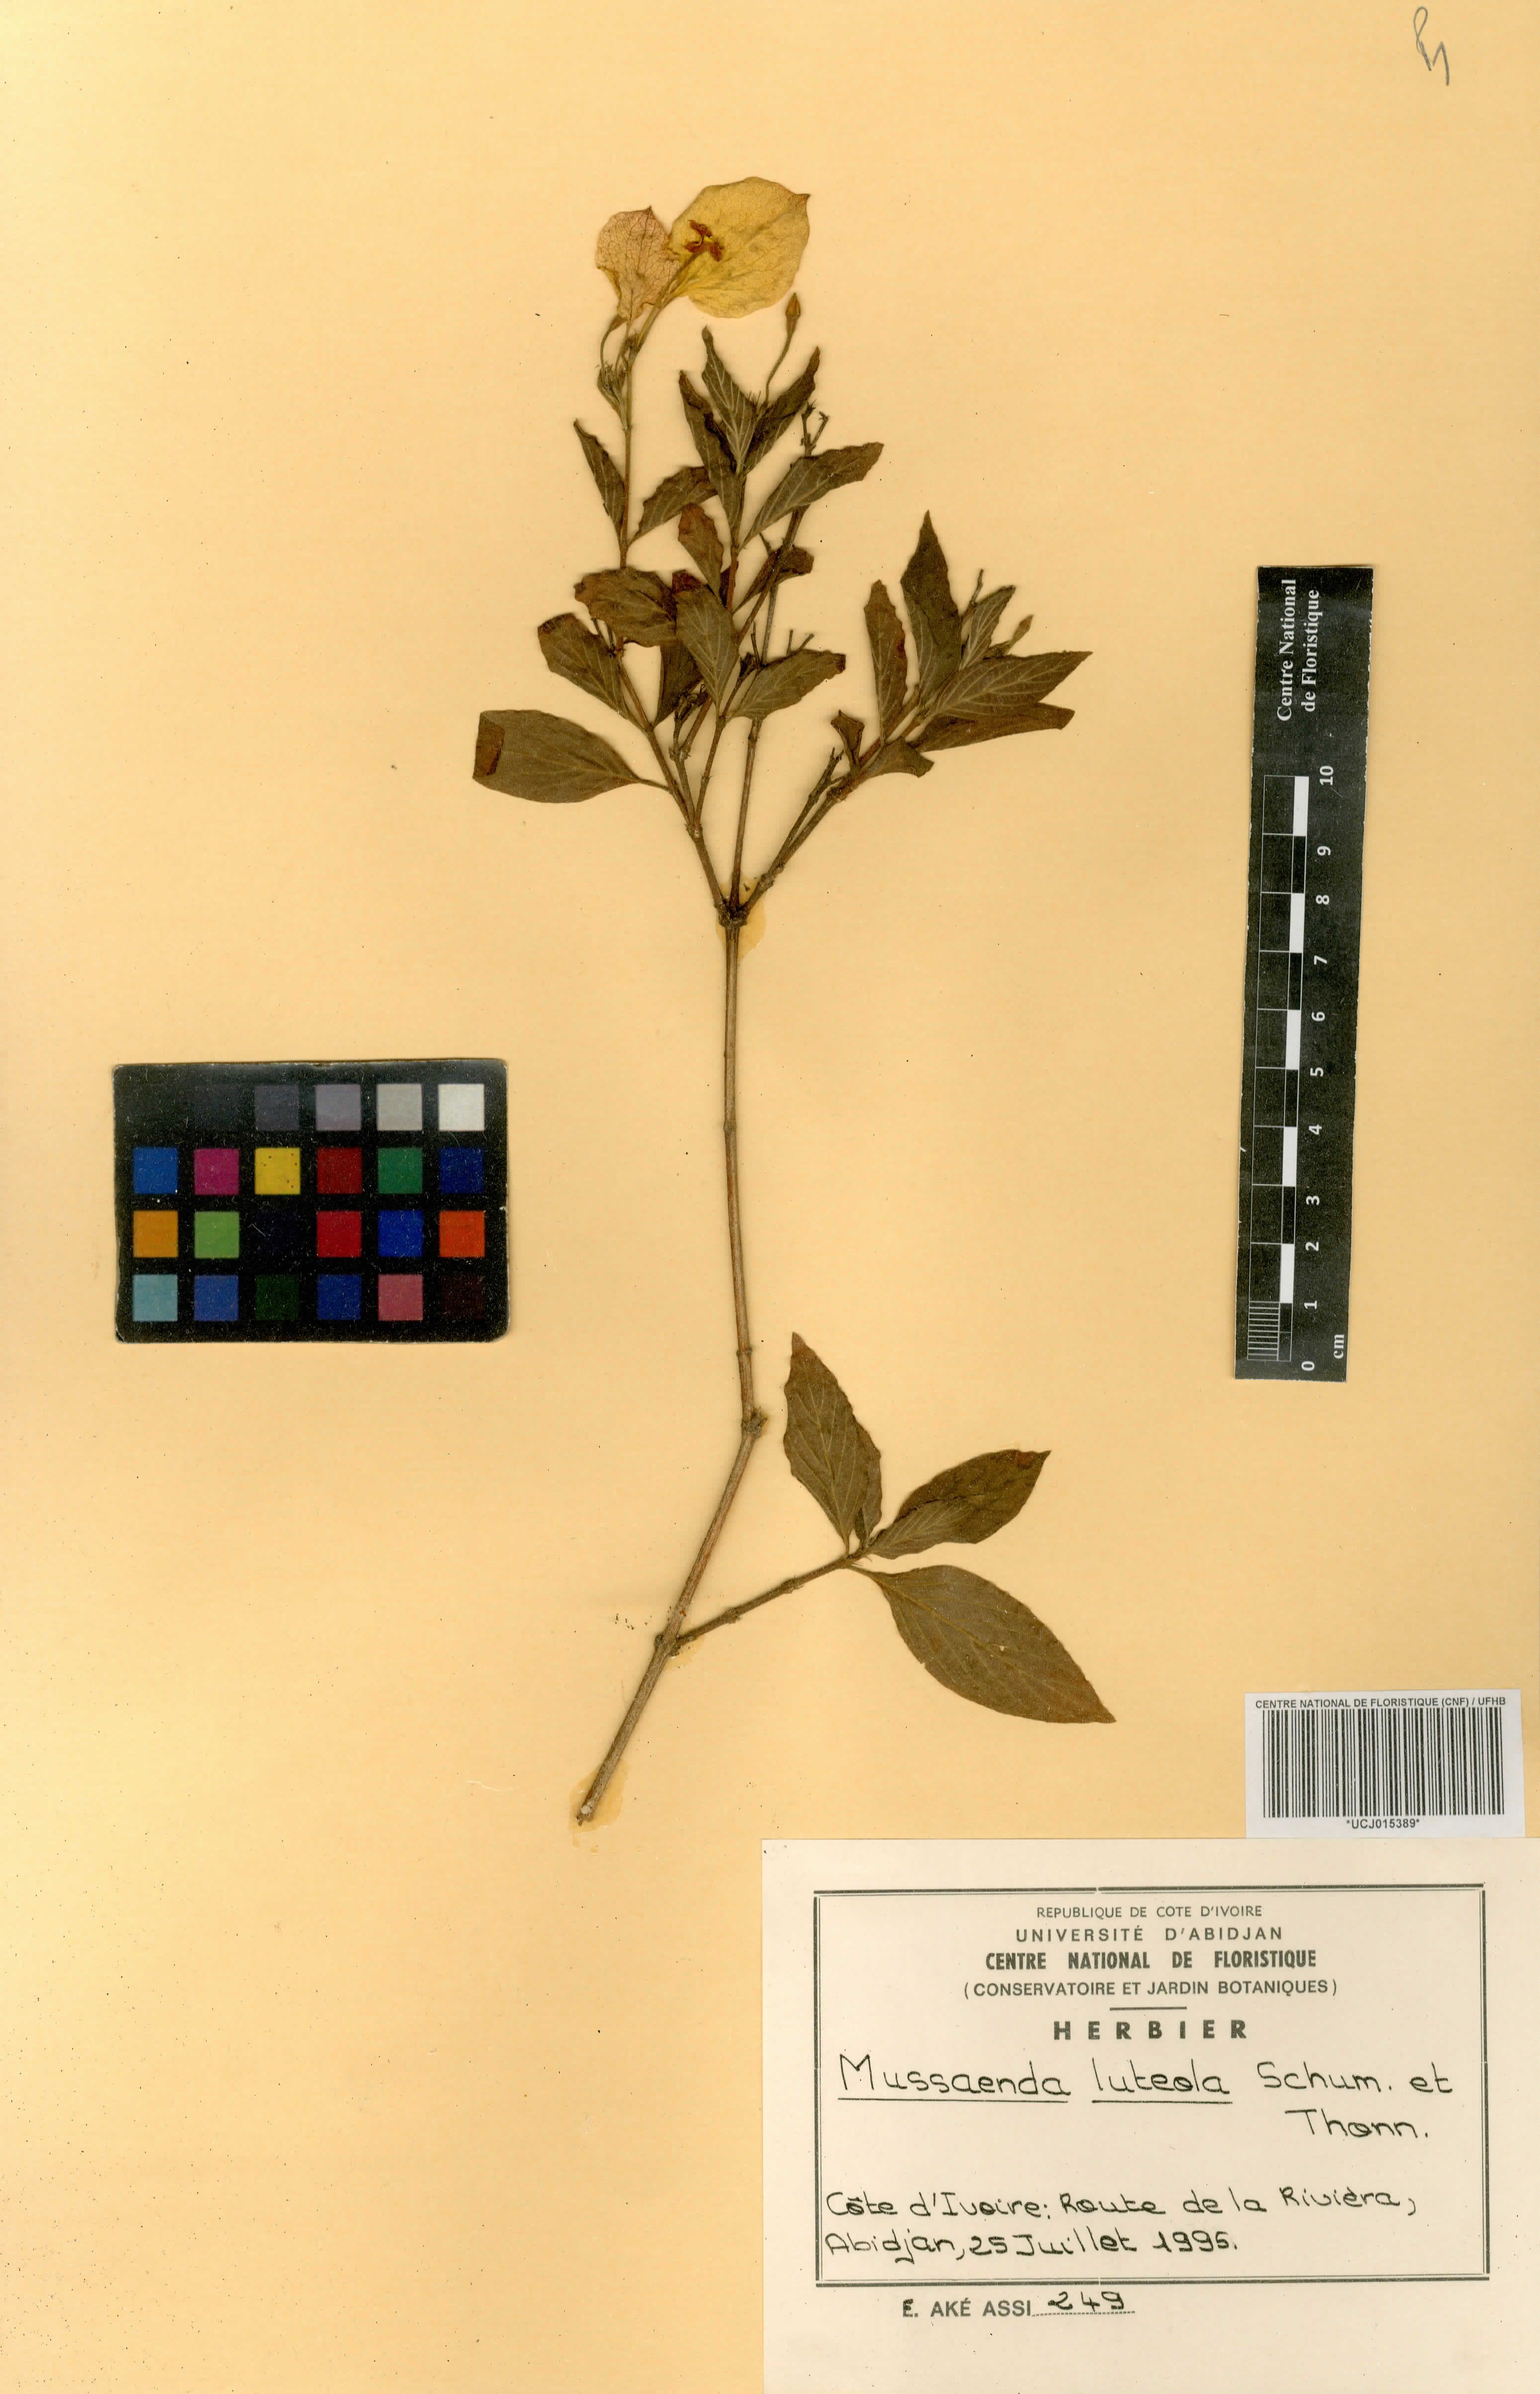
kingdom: Plantae
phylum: Tracheophyta
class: Magnoliopsida
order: Gentianales
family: Rubiaceae
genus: Pentas
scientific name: Pentas lanceolata
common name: Egyptian starcluster
